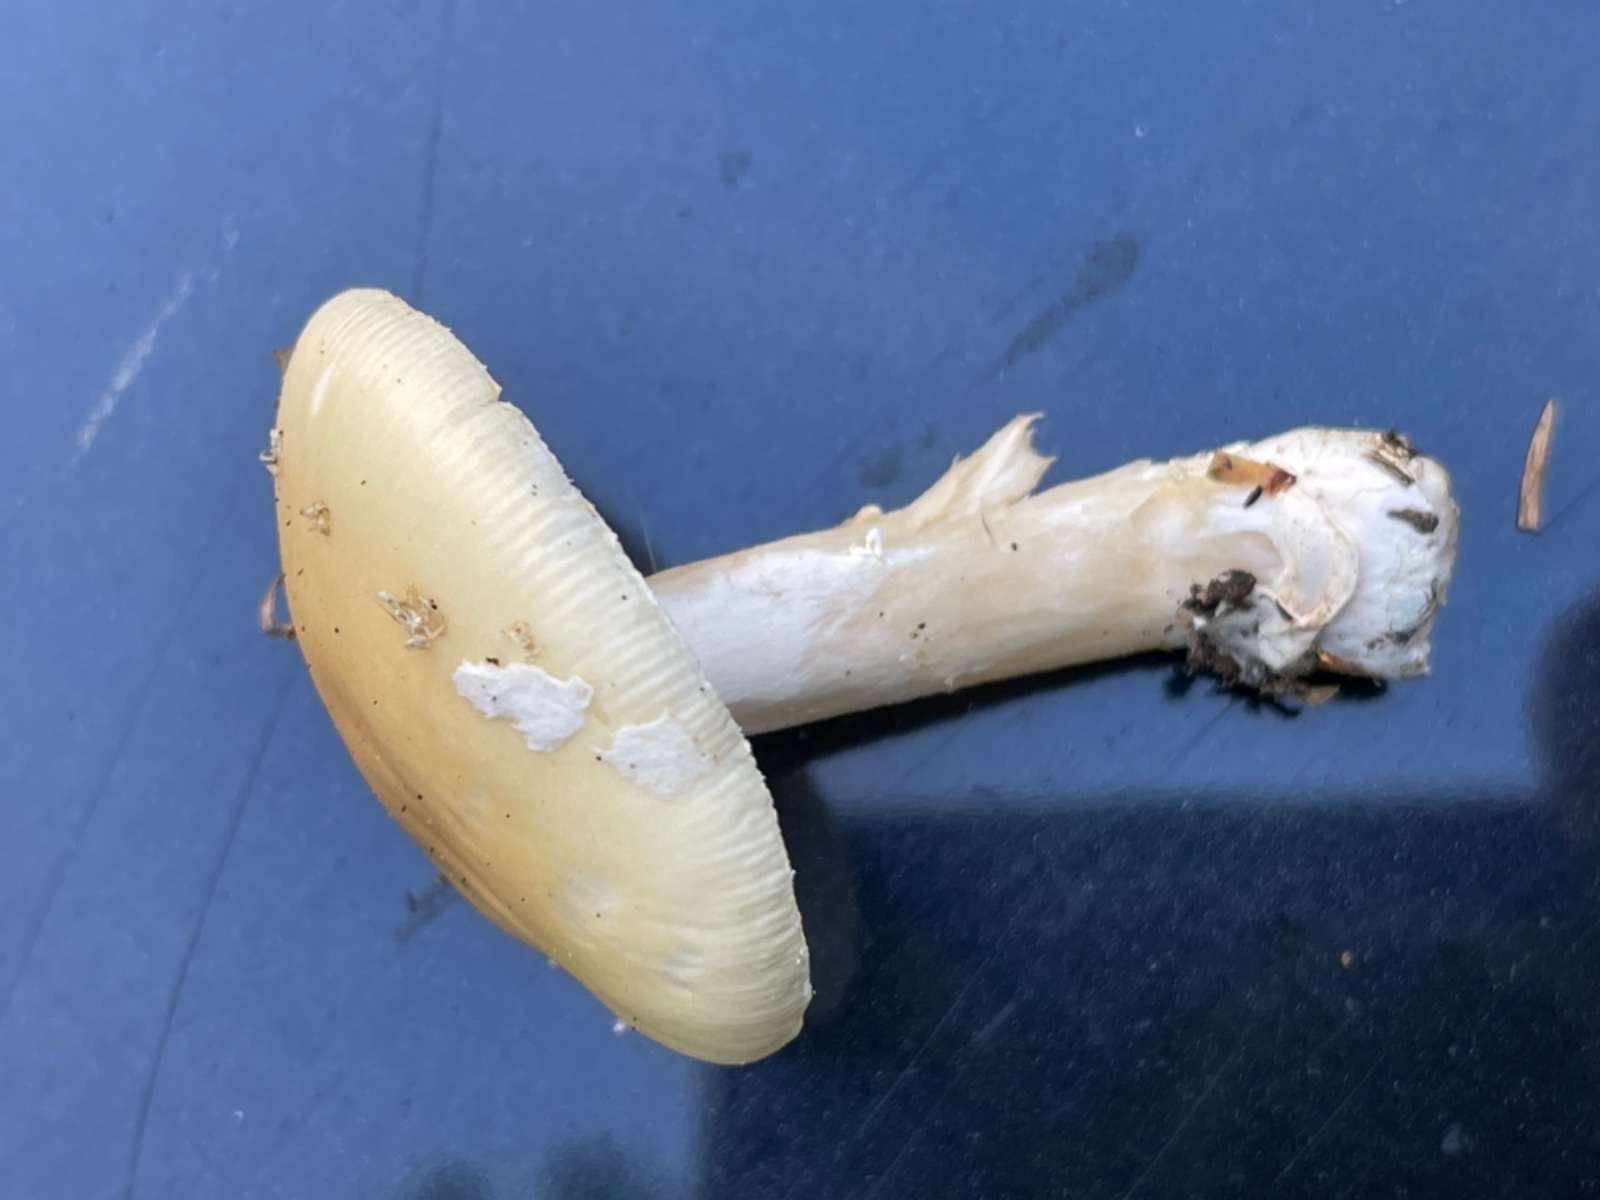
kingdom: Fungi
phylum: Basidiomycota
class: Agaricomycetes
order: Agaricales
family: Amanitaceae
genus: Amanita
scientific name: Amanita gemmata
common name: okkergul fluesvamp
